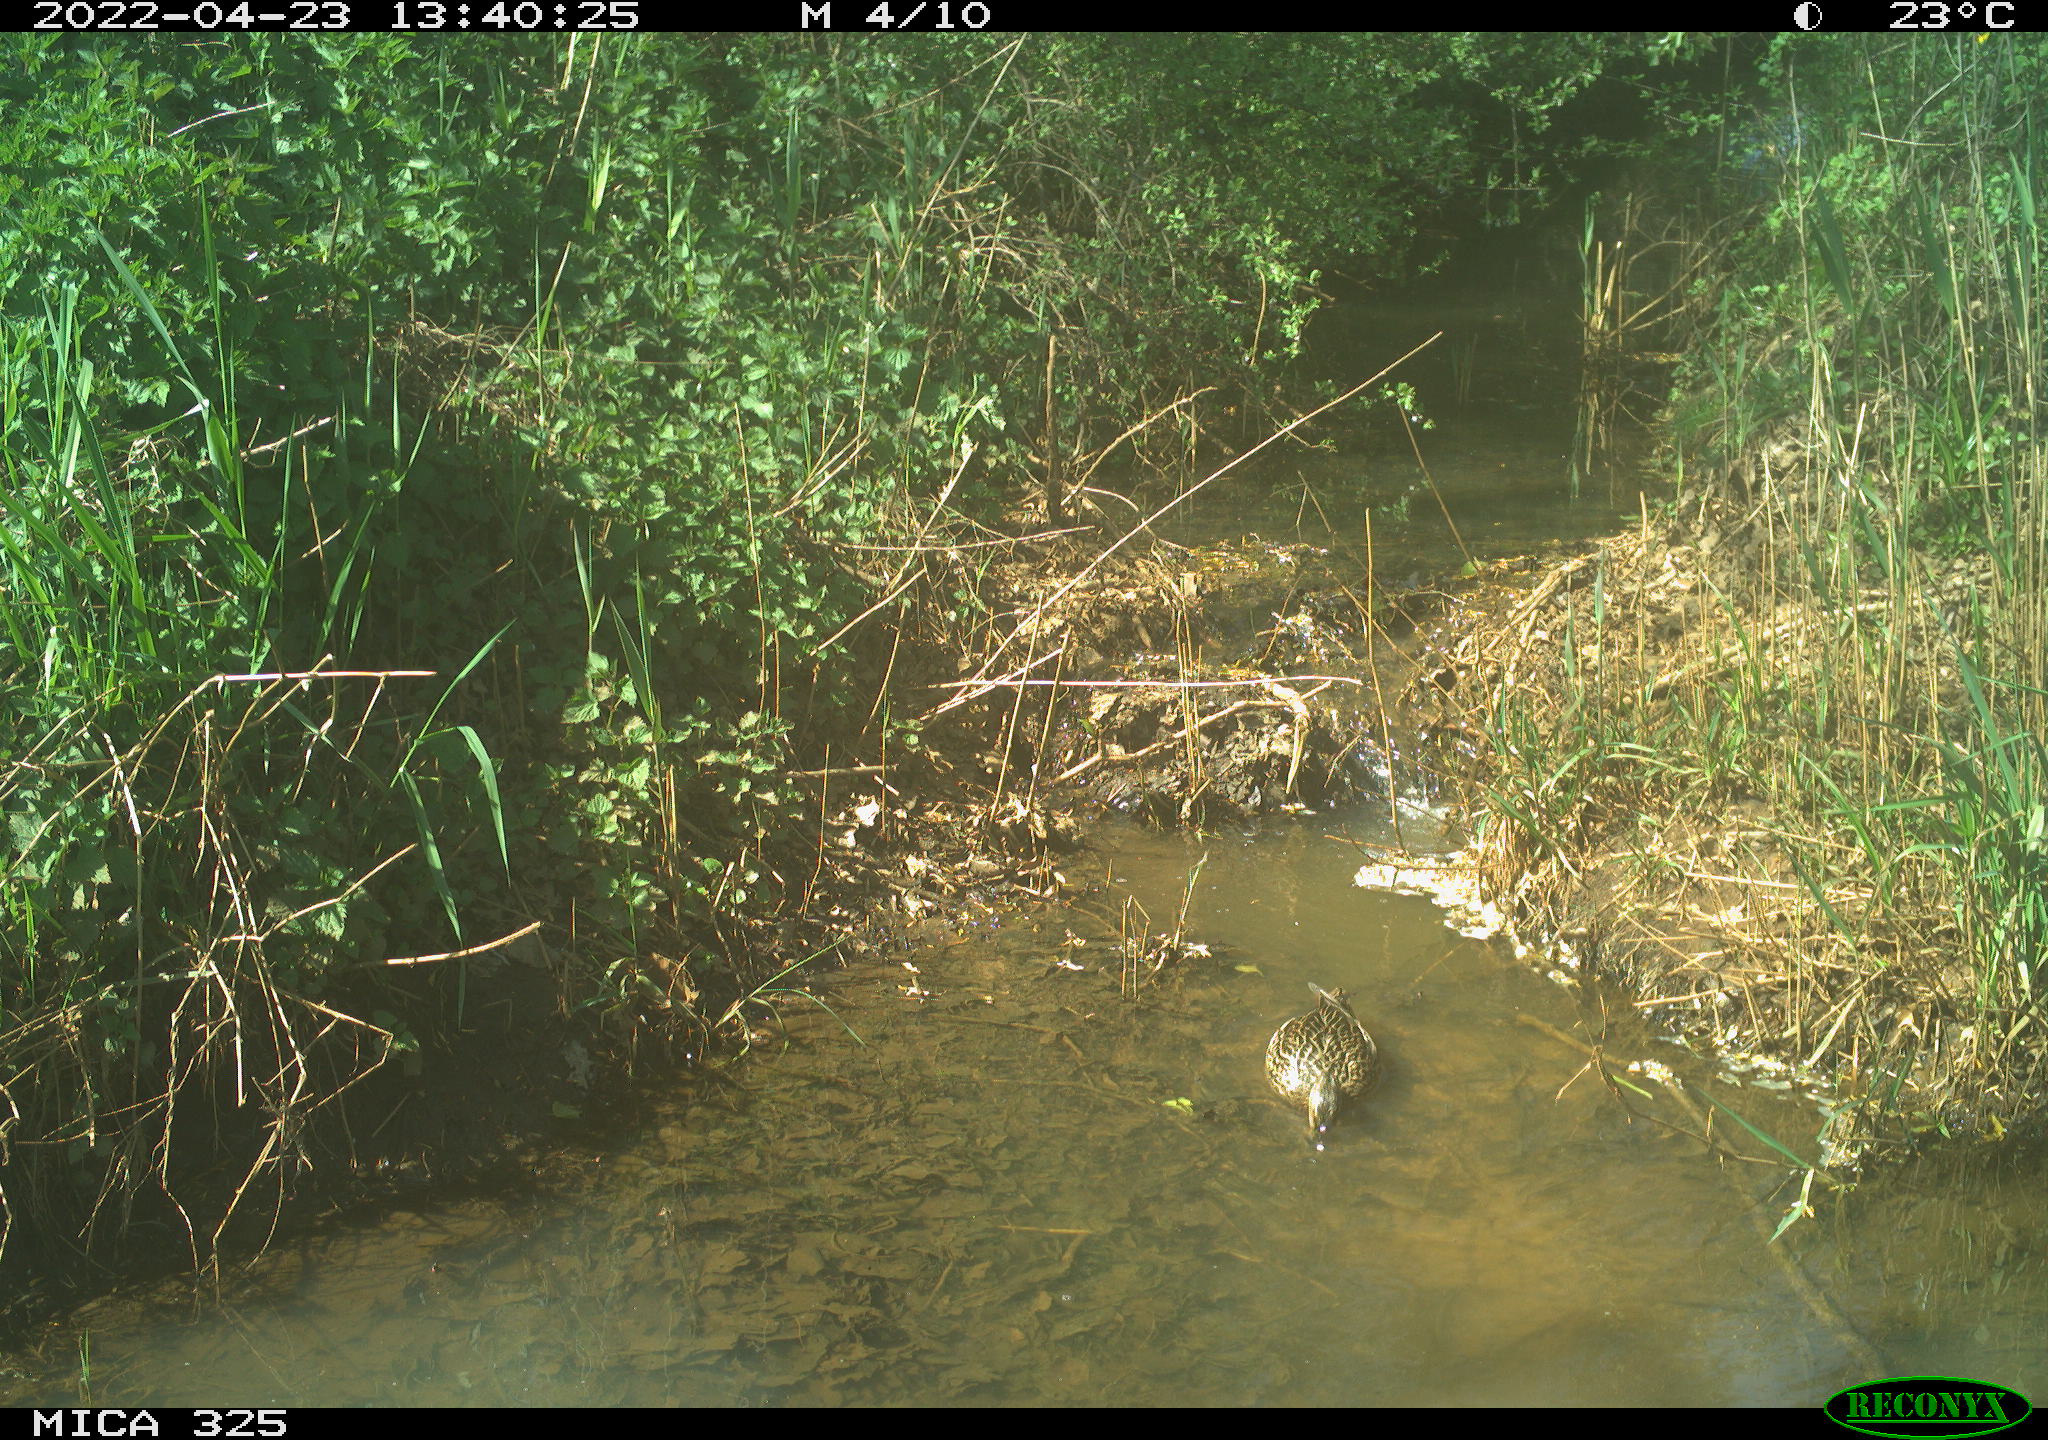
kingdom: Animalia
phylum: Chordata
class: Aves
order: Anseriformes
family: Anatidae
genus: Anas
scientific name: Anas platyrhynchos
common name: Mallard
